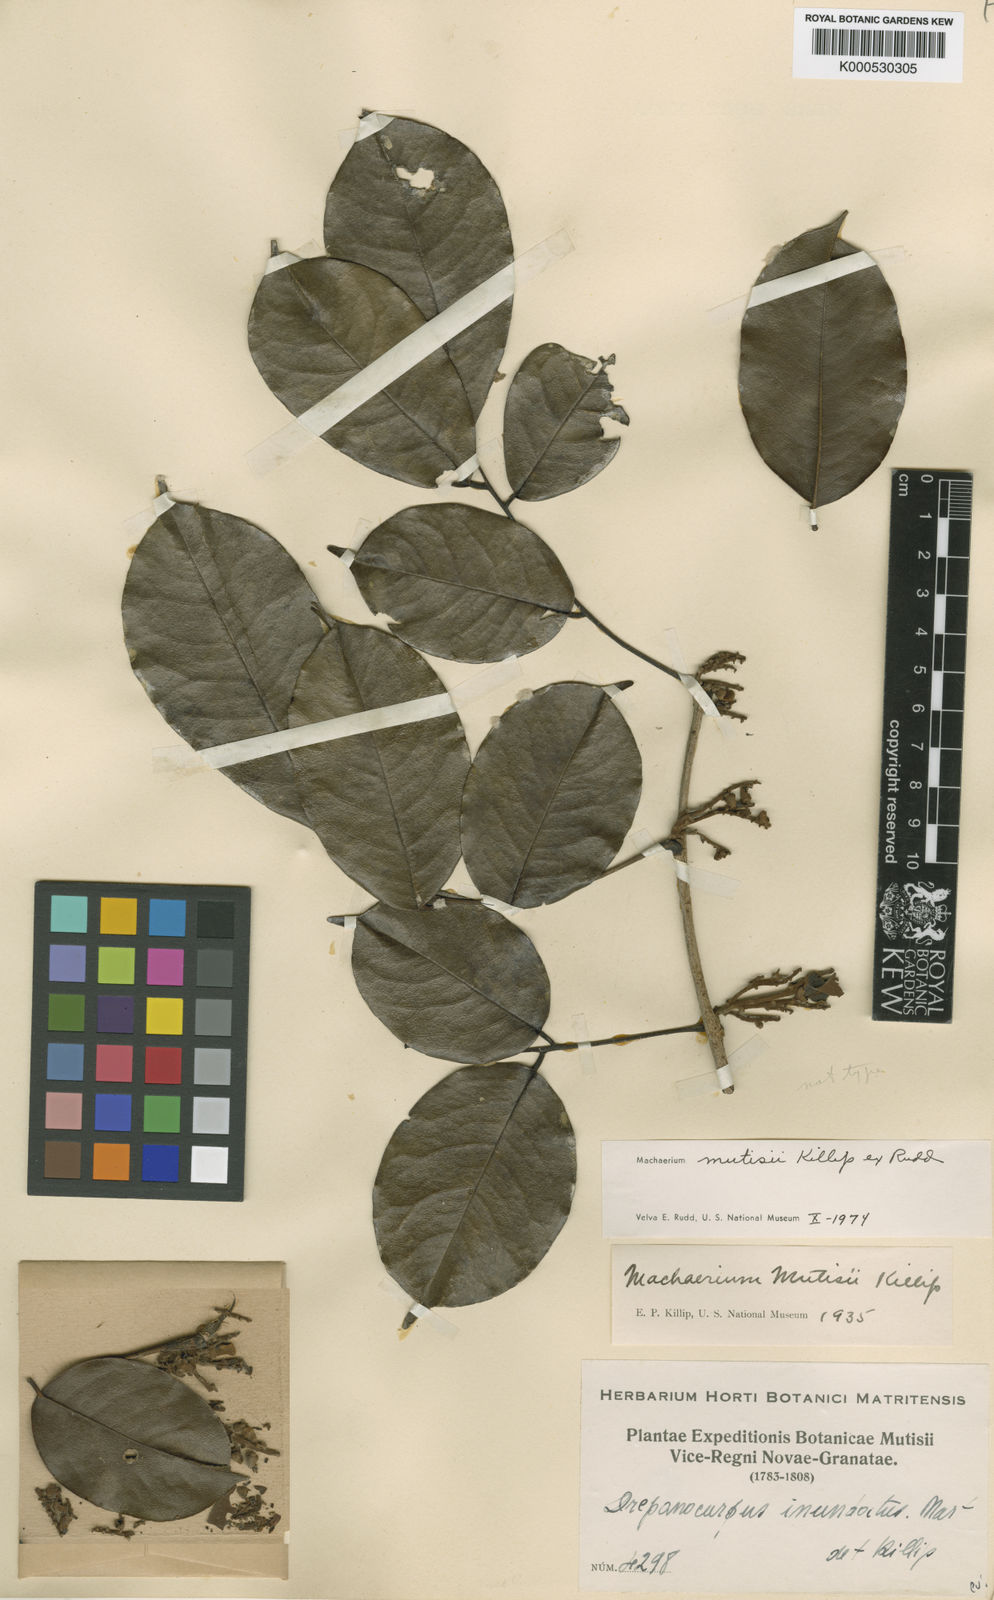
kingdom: Plantae
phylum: Tracheophyta
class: Magnoliopsida
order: Fabales
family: Fabaceae
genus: Machaerium
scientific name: Machaerium mutisii
